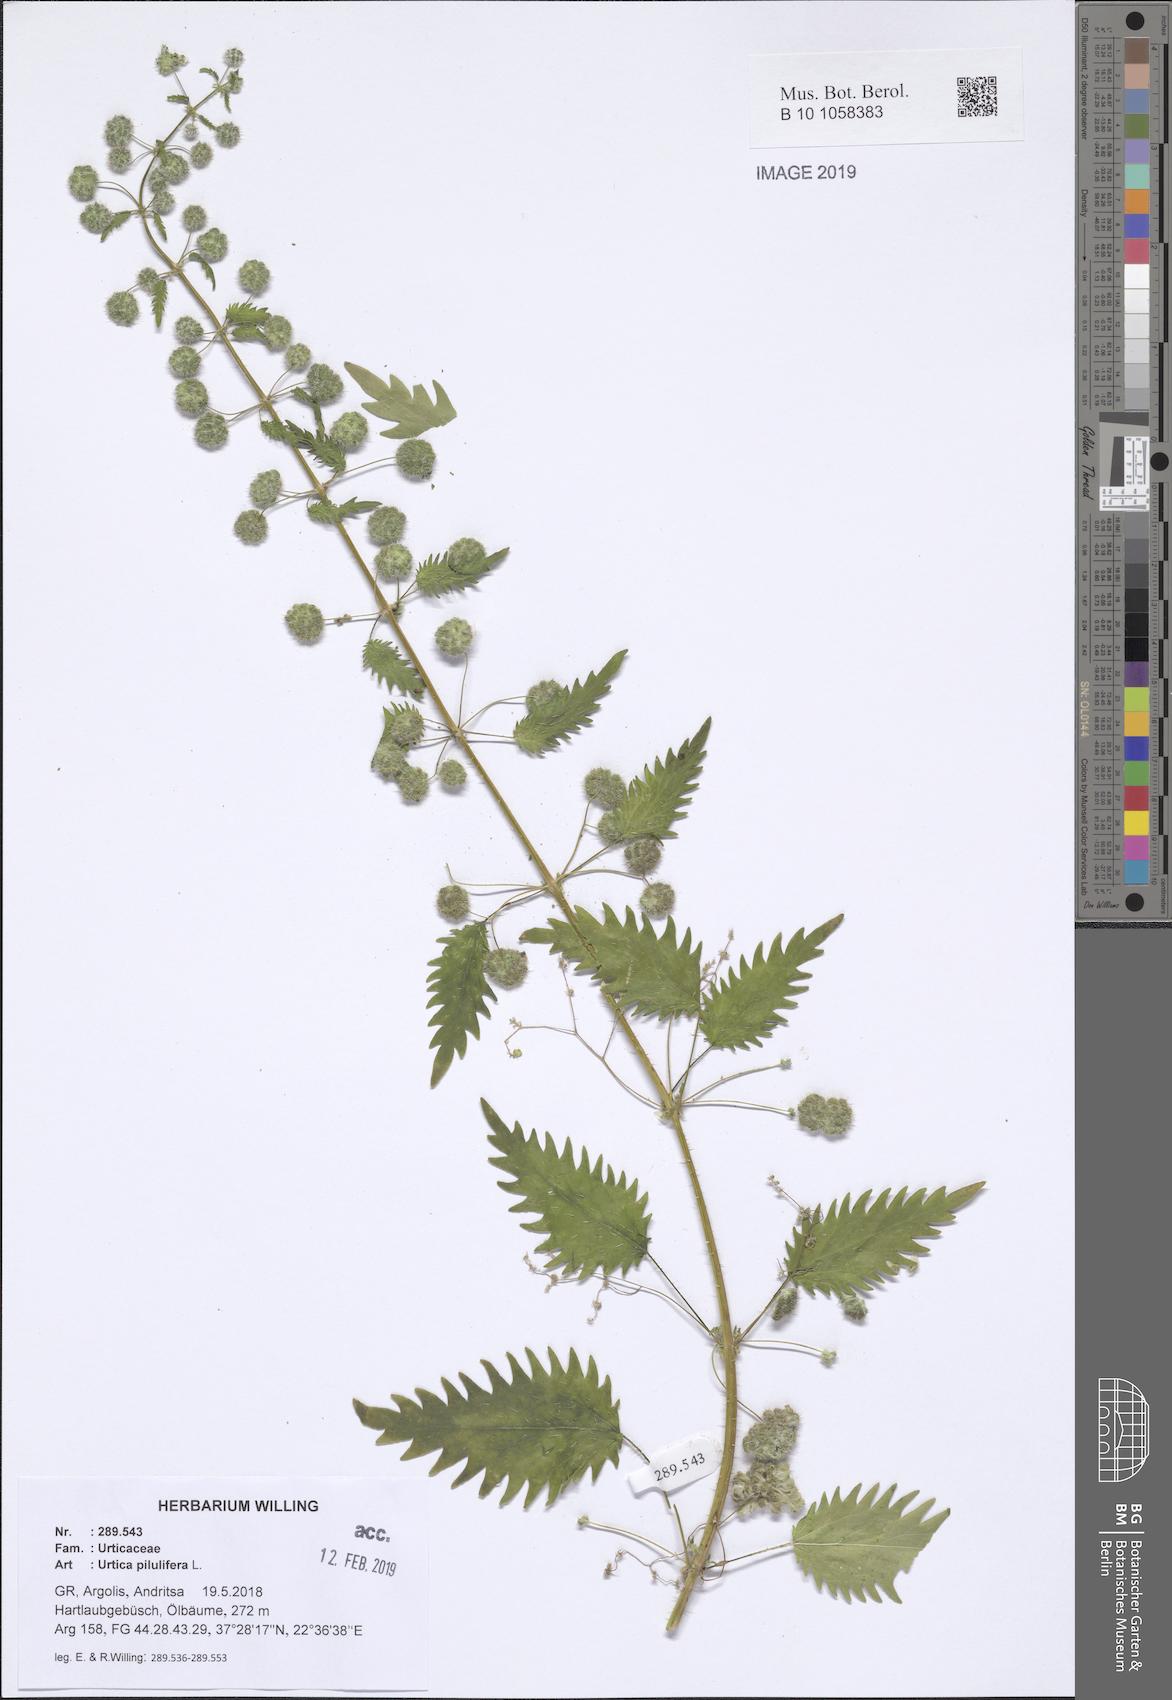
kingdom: Plantae
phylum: Tracheophyta
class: Magnoliopsida
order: Rosales
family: Urticaceae
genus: Urtica
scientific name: Urtica pilulifera
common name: Roman nettle
